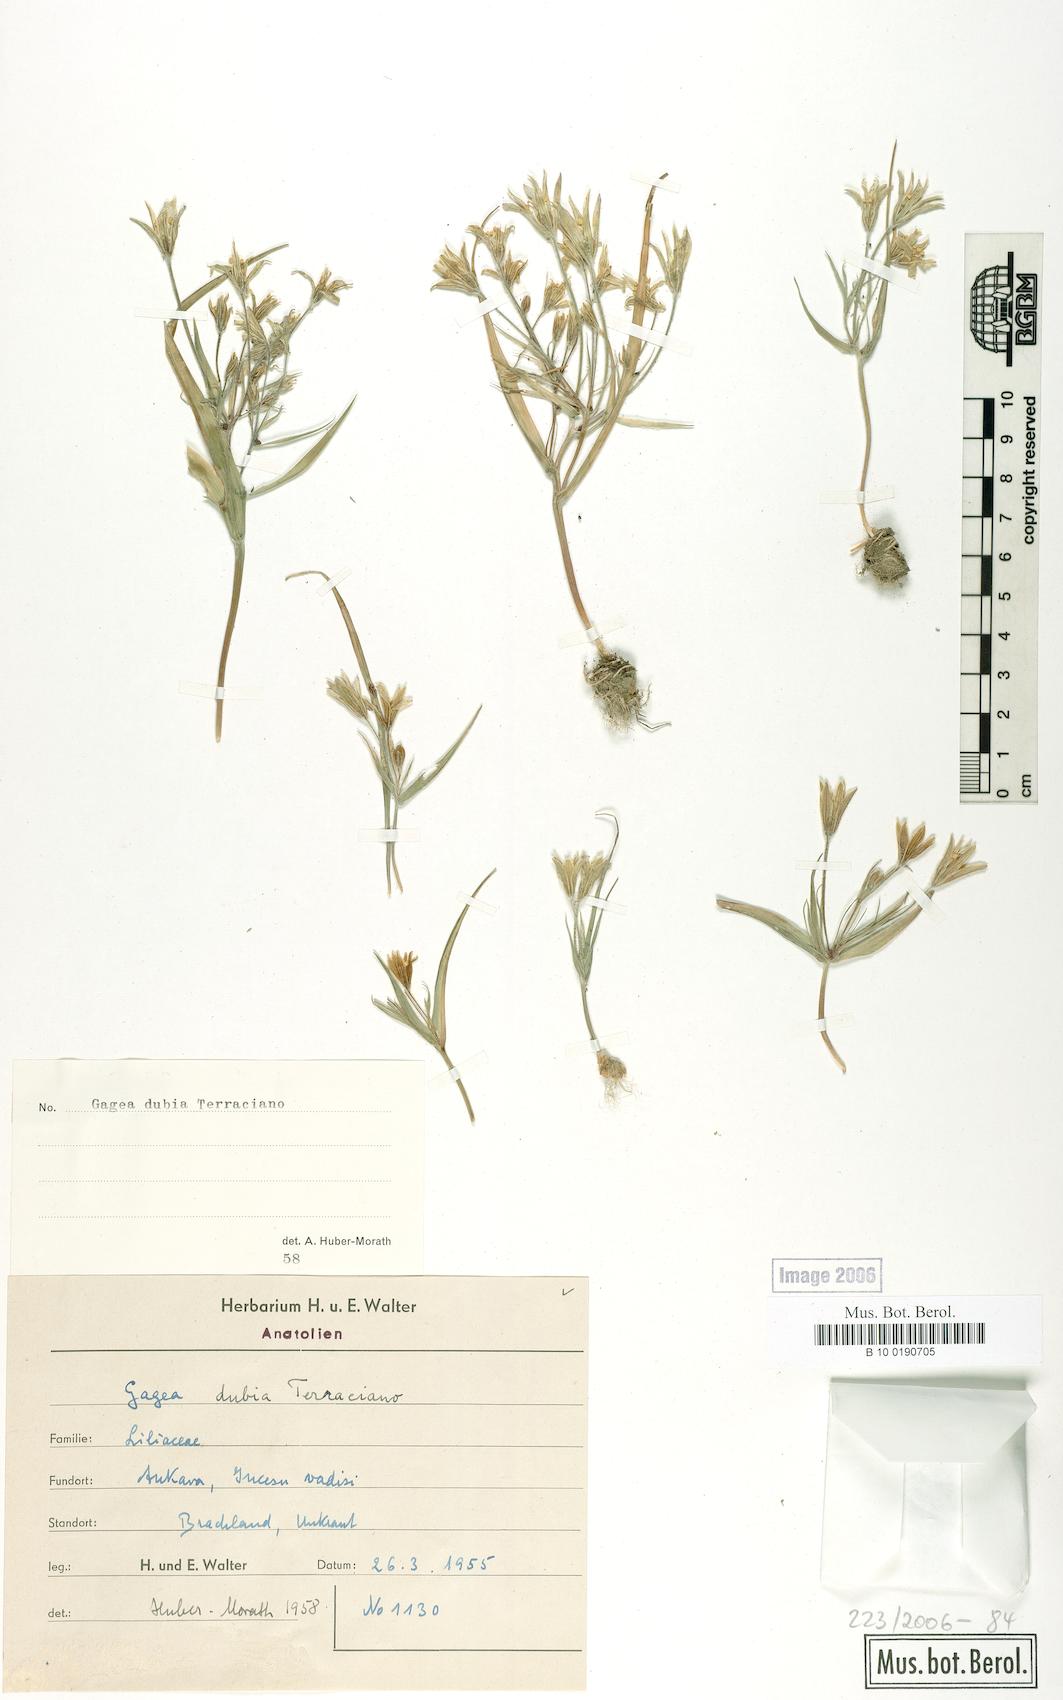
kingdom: Plantae
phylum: Tracheophyta
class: Liliopsida
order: Liliales
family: Liliaceae
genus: Gagea
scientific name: Gagea dubia
